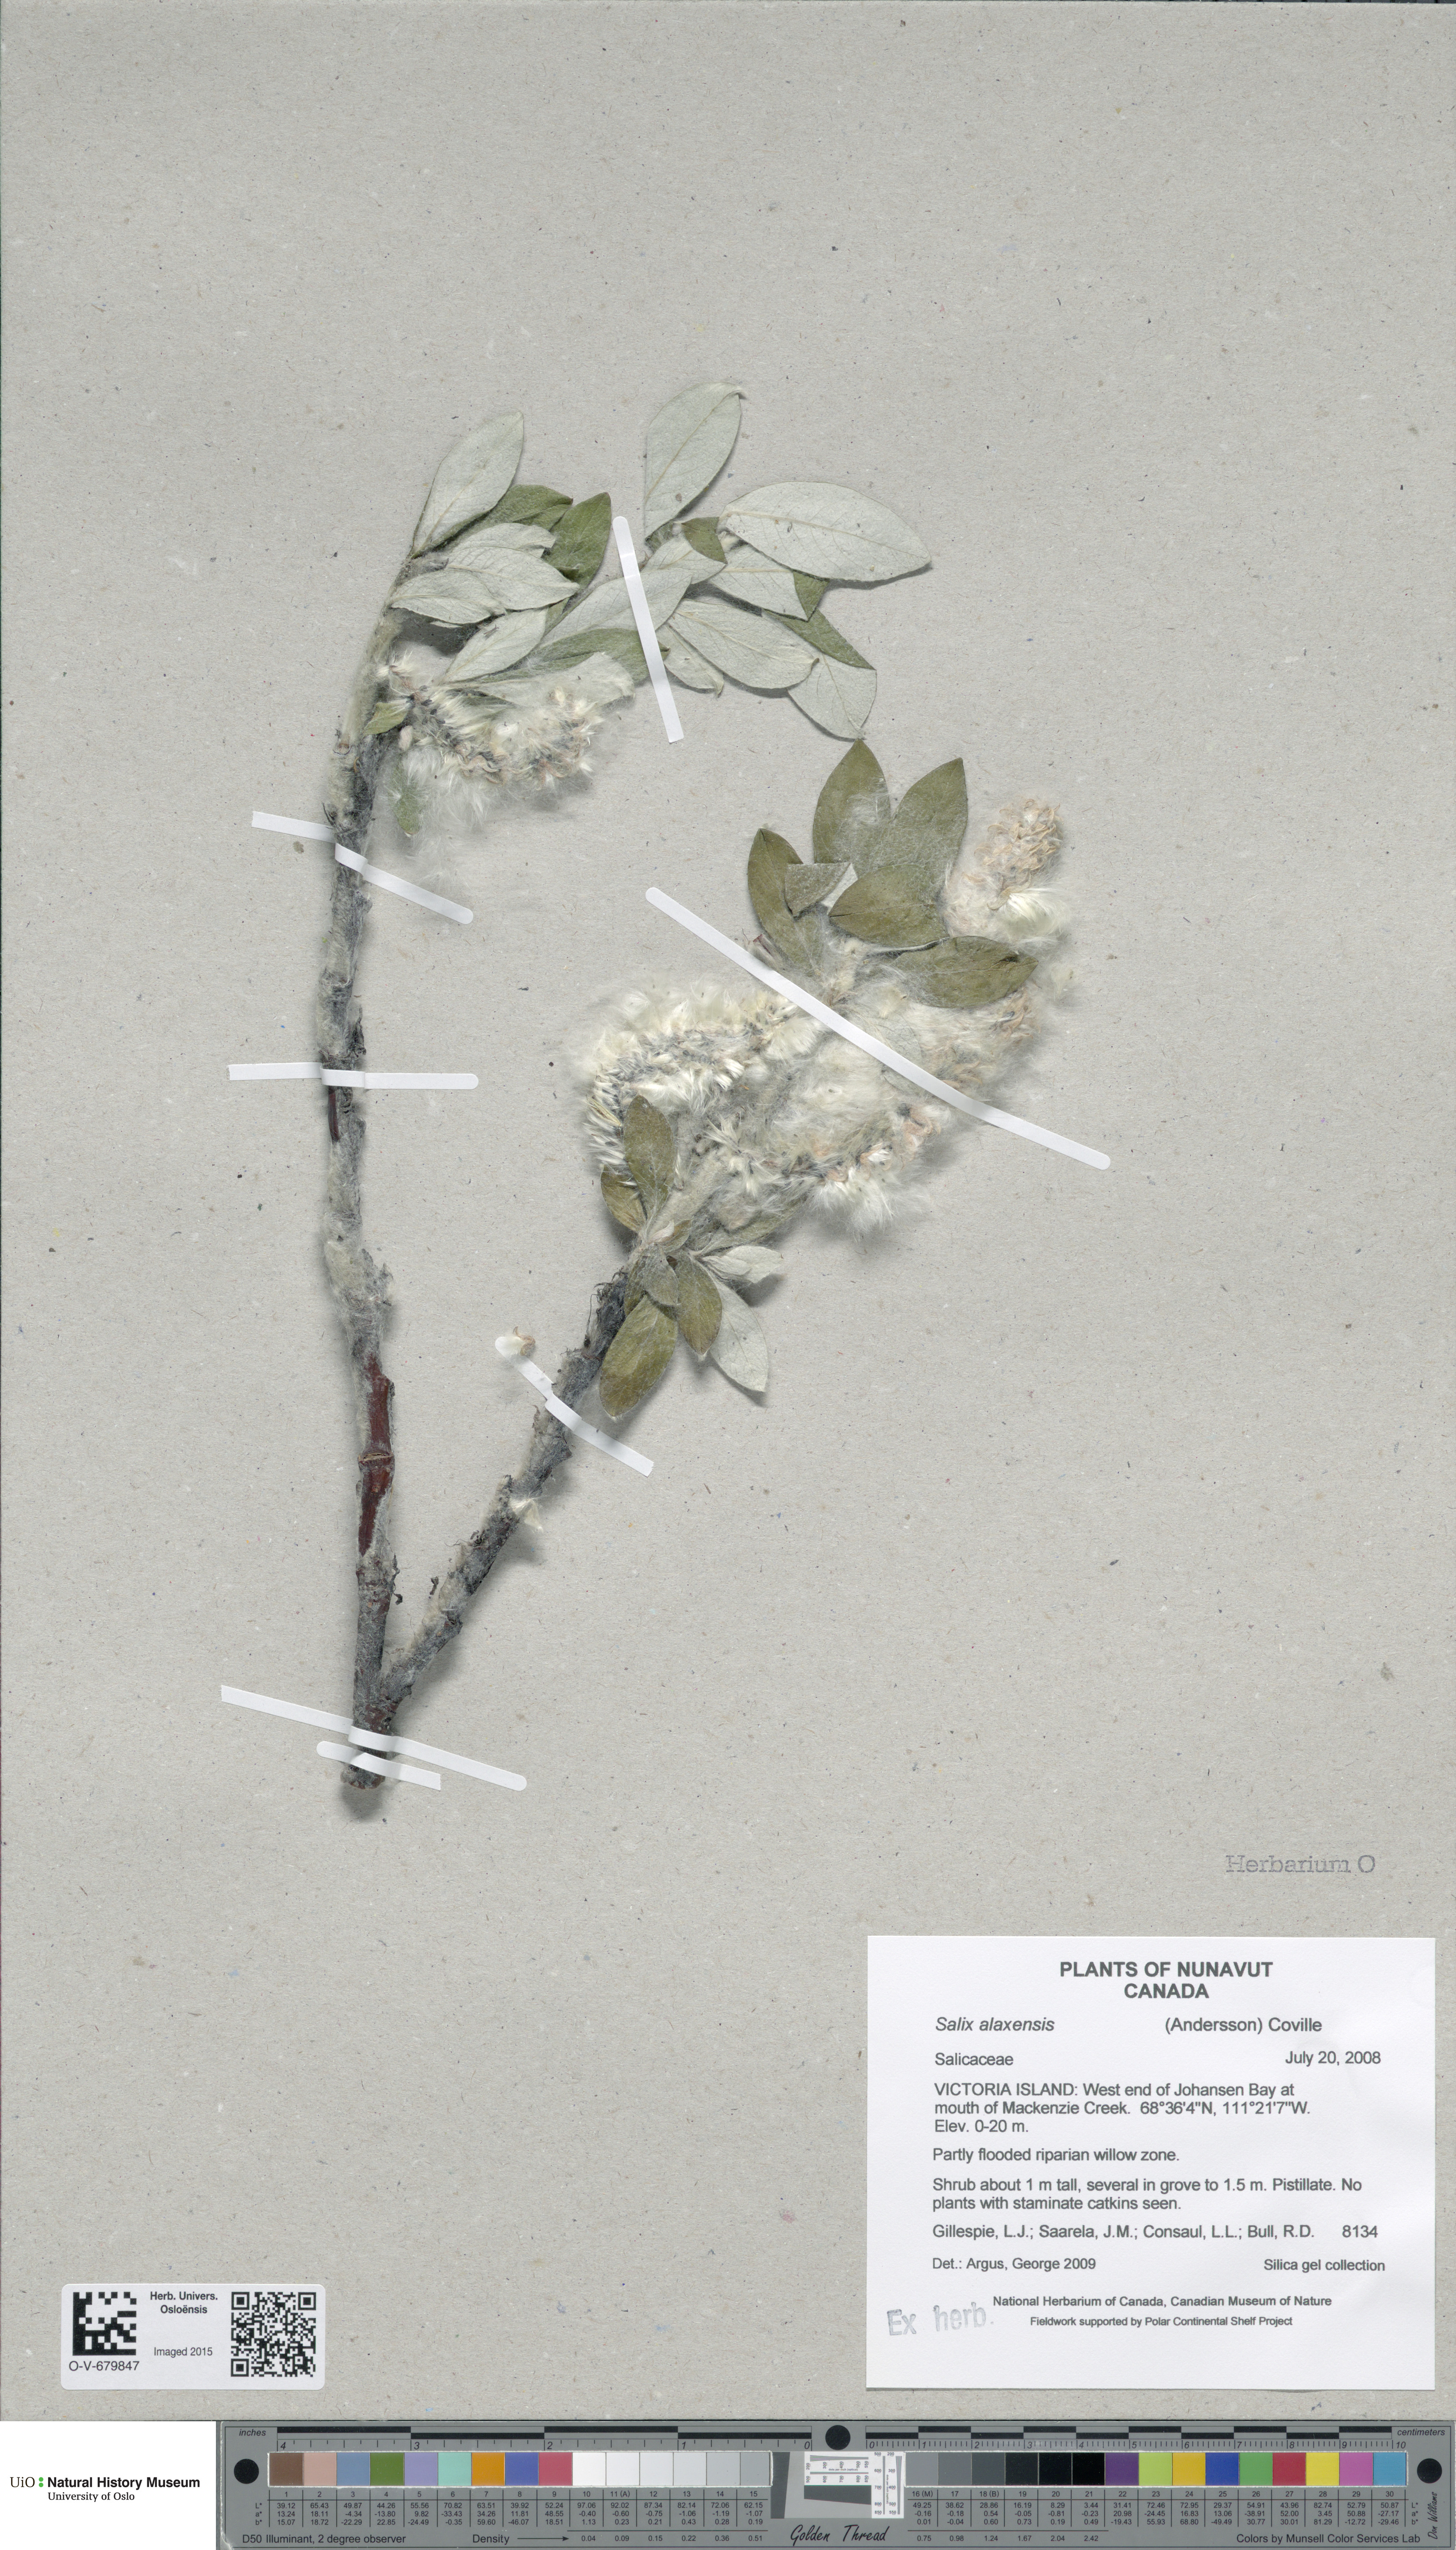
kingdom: Plantae
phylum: Tracheophyta
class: Magnoliopsida
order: Malpighiales
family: Salicaceae
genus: Salix
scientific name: Salix alaxensis
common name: Feltleaf willow
